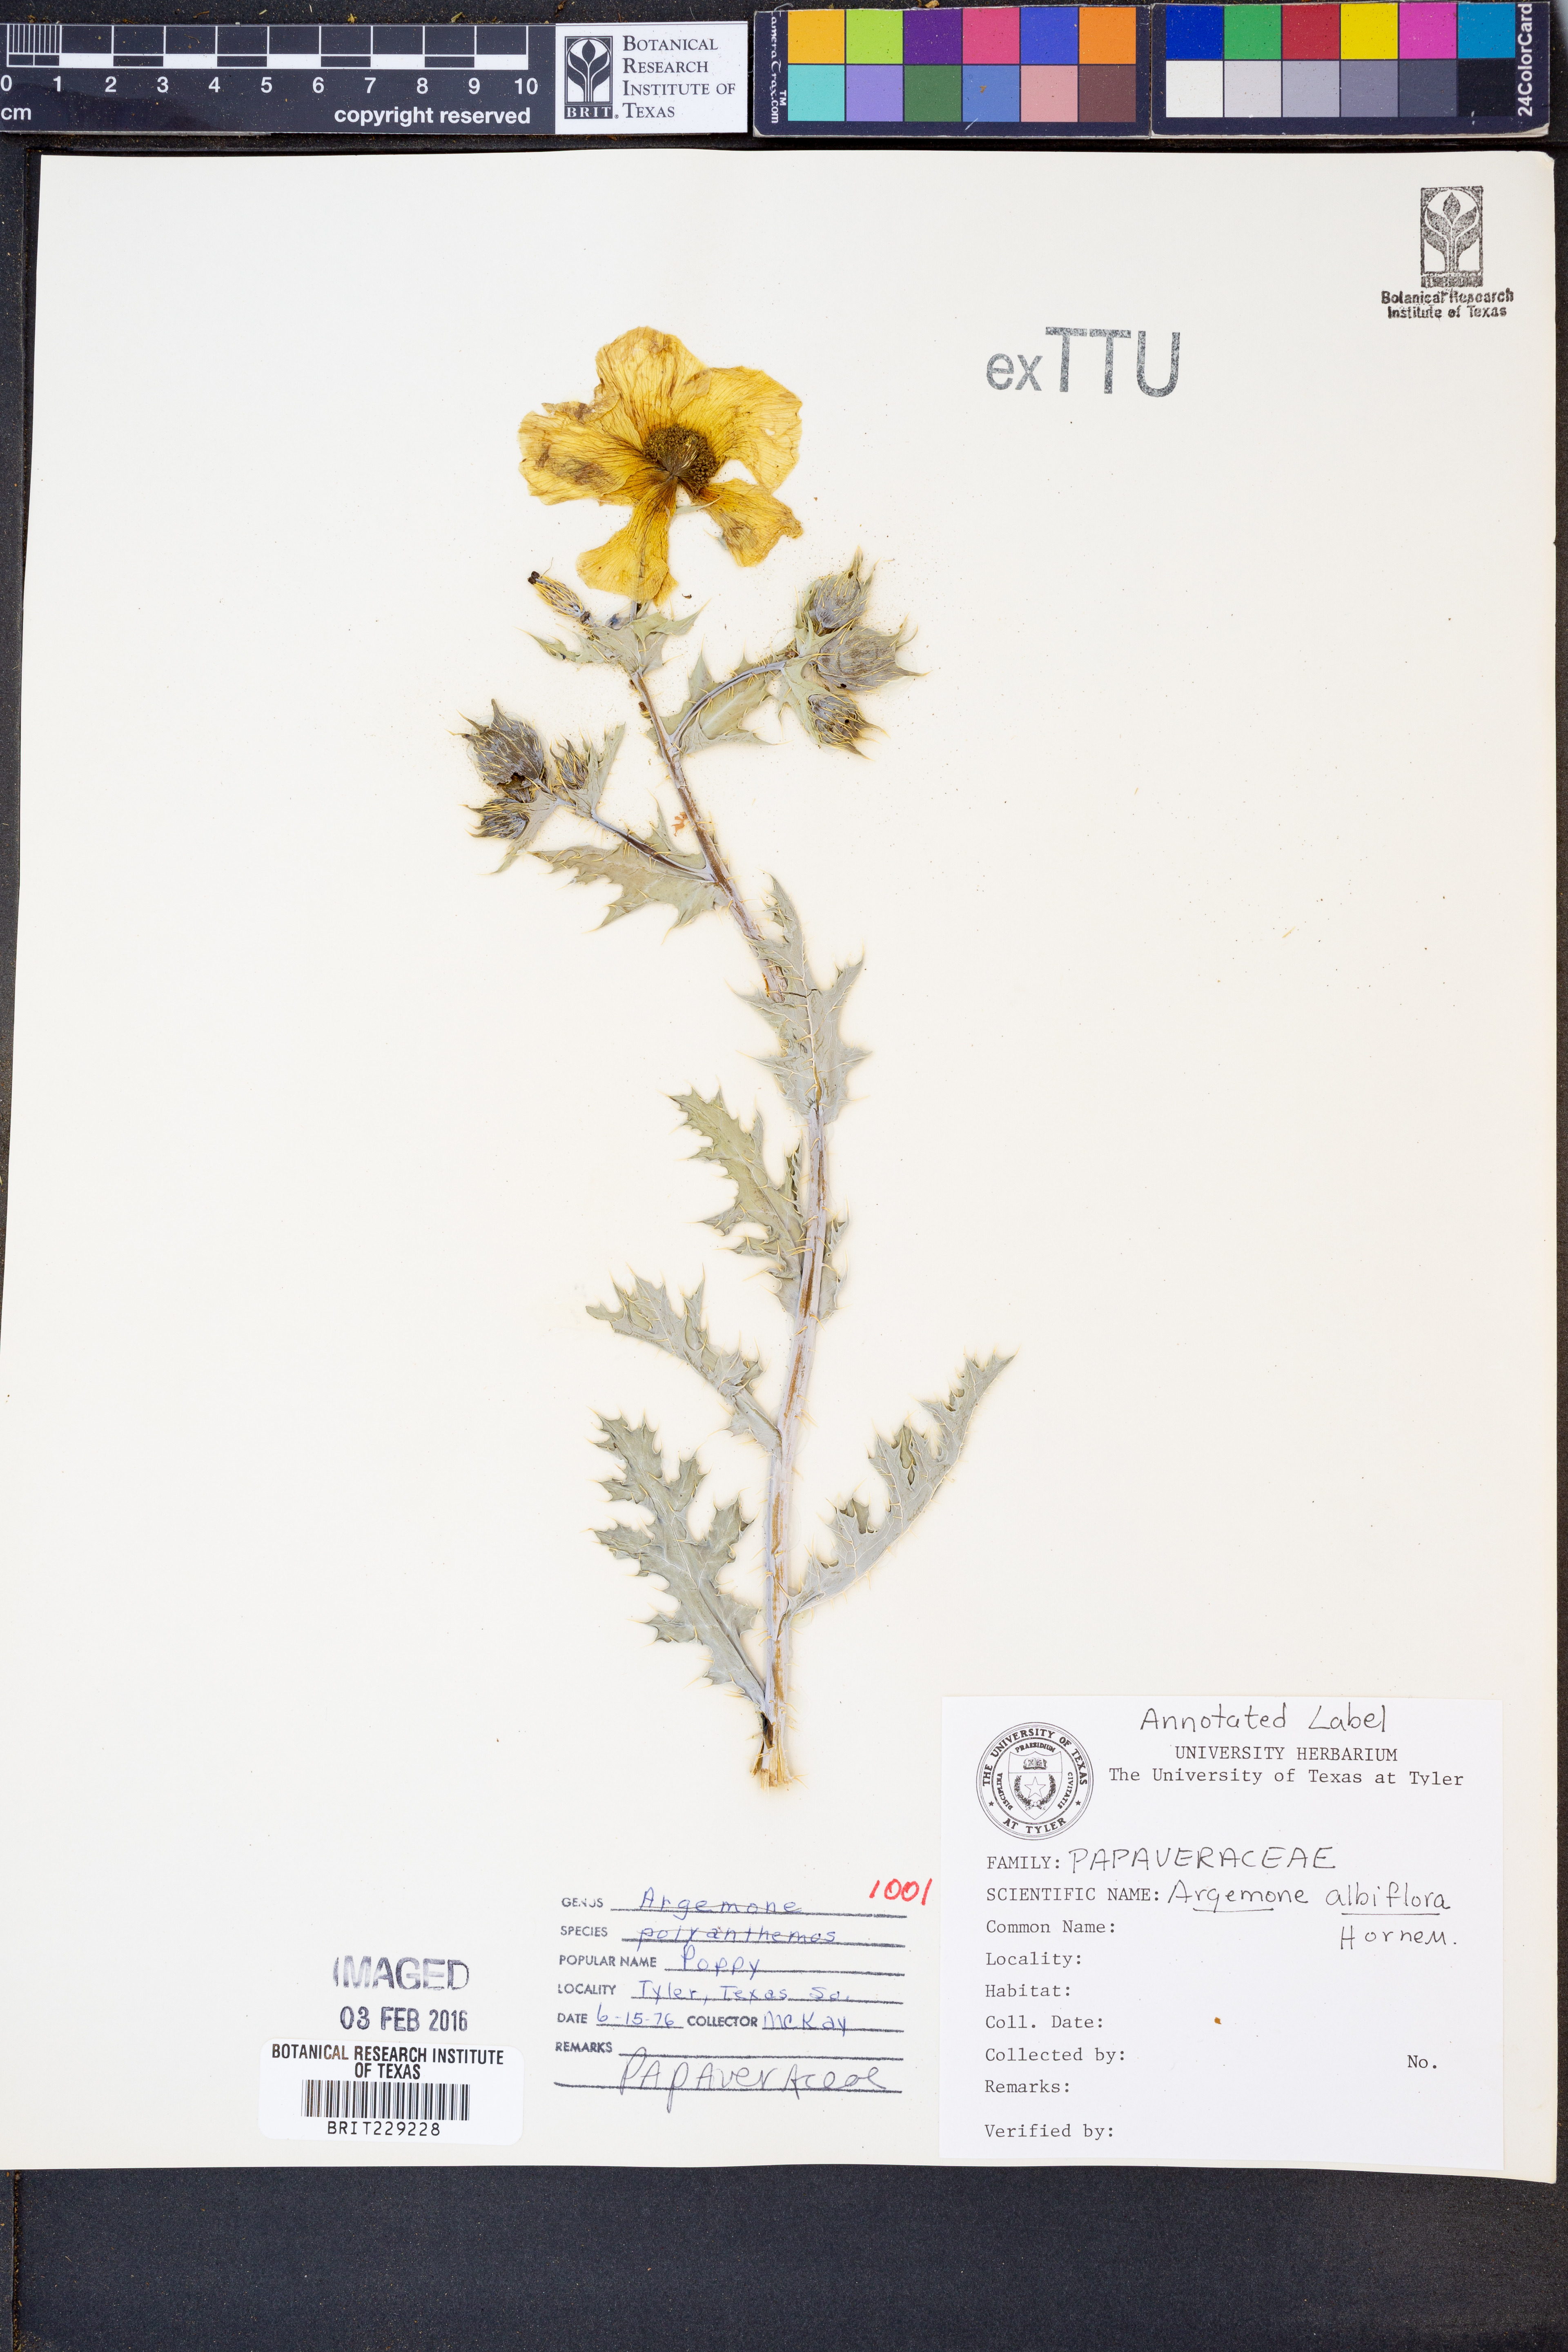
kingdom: Plantae
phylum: Tracheophyta
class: Magnoliopsida
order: Ranunculales
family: Papaveraceae
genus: Argemone
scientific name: Argemone albiflora
